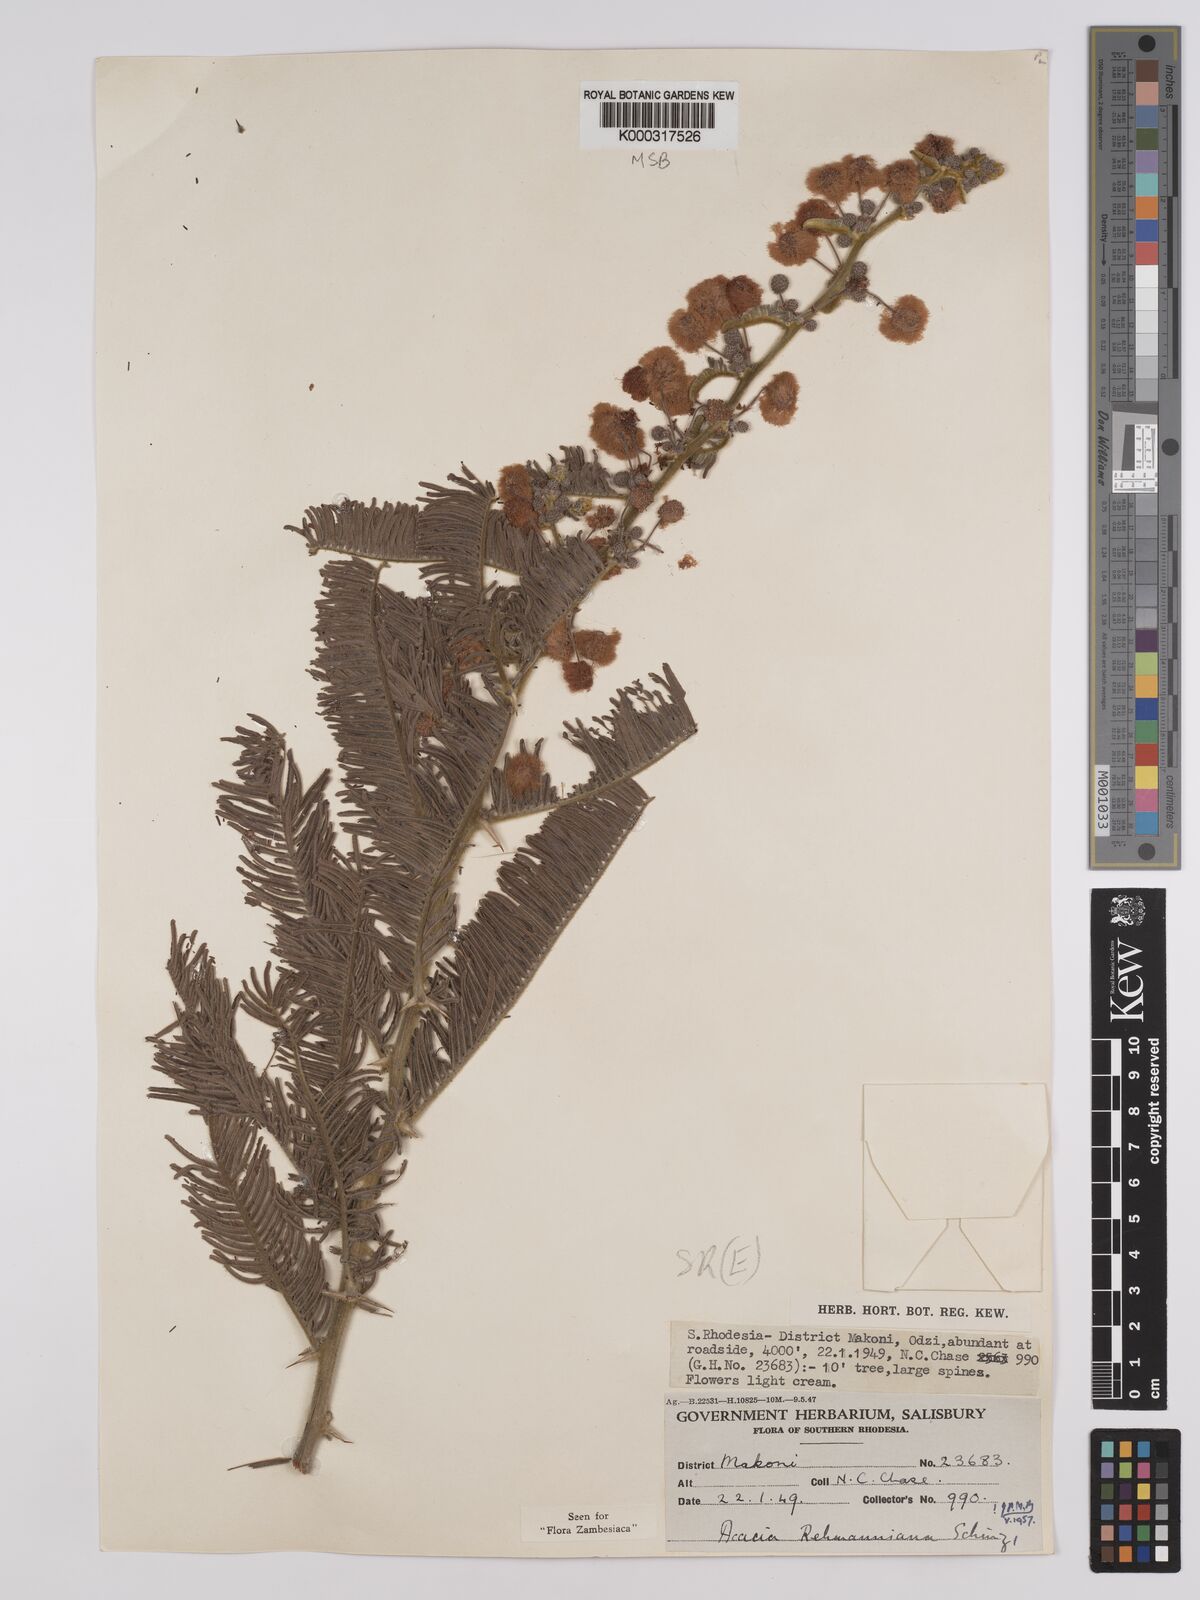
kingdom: Plantae
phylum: Tracheophyta
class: Magnoliopsida
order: Fabales
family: Fabaceae
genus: Vachellia
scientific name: Vachellia rehmanniana
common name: Silky thorn
